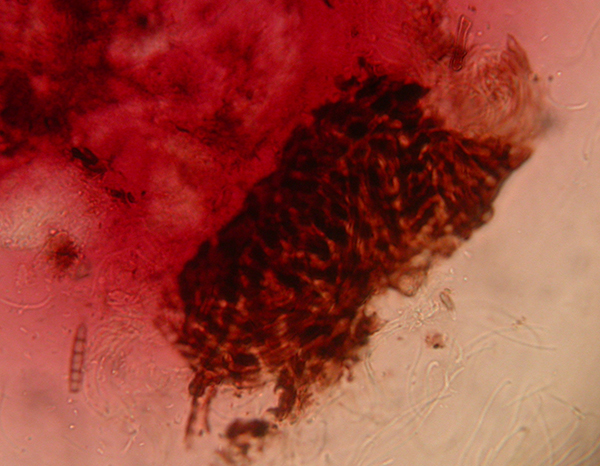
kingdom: Fungi
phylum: Ascomycota
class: Leotiomycetes
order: Helotiales
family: Dermateaceae
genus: Patinella
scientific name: Patinella rubrotingens
